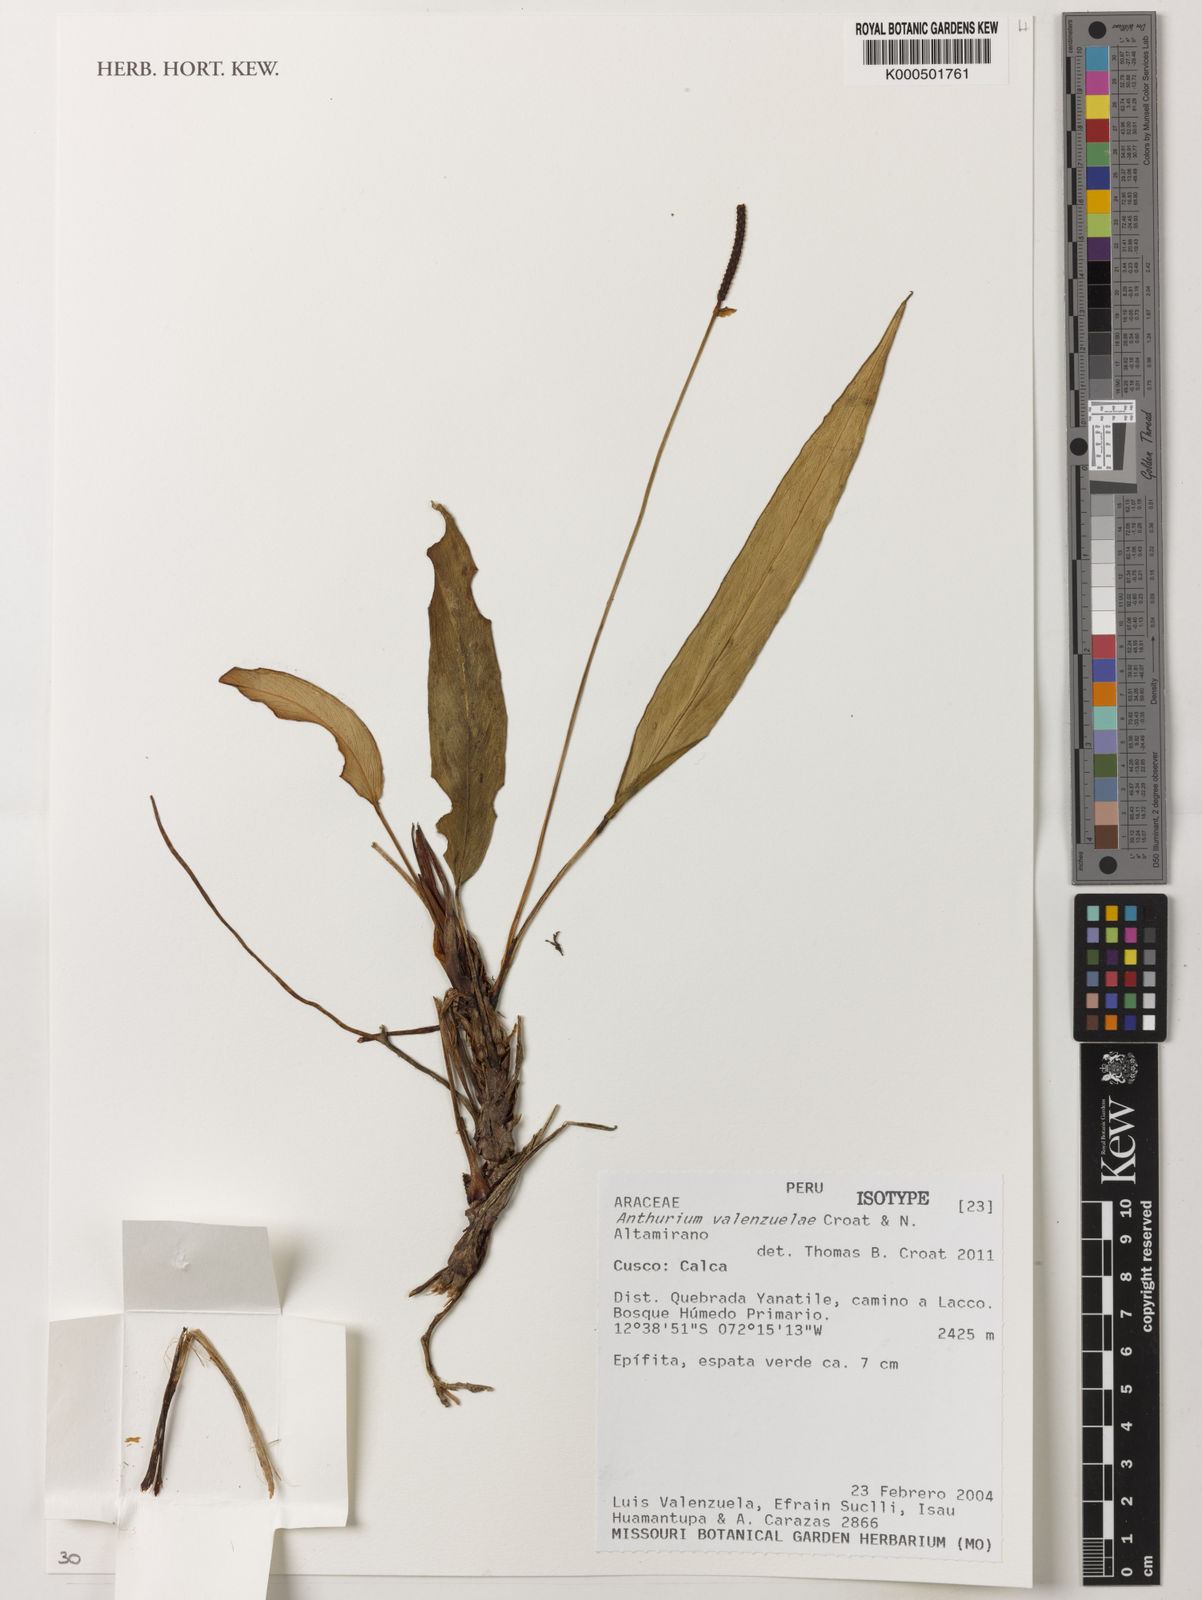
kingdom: Plantae
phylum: Tracheophyta
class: Liliopsida
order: Alismatales
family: Araceae
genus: Anthurium
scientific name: Anthurium valenzuelae
